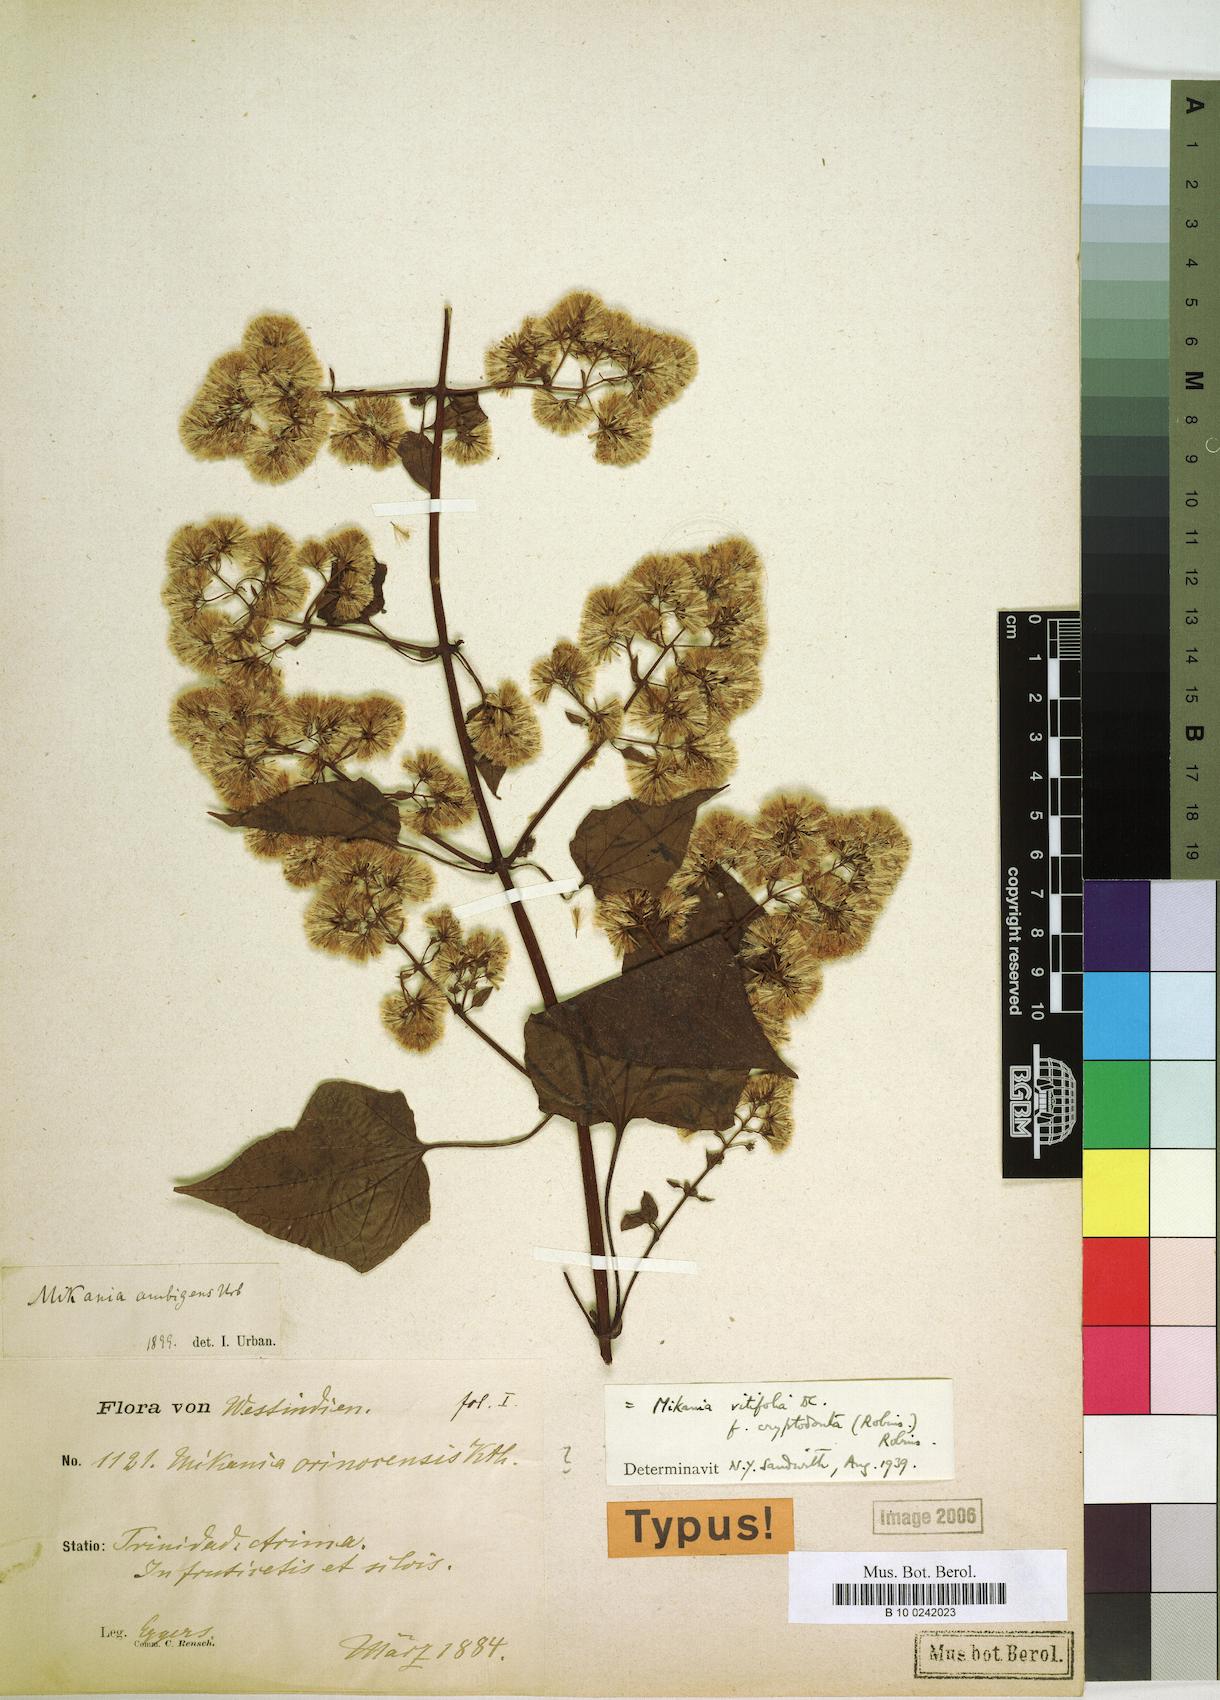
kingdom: Plantae
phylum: Tracheophyta
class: Magnoliopsida
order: Asterales
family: Asteraceae
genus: Mikania
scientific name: Mikania vitifolia
